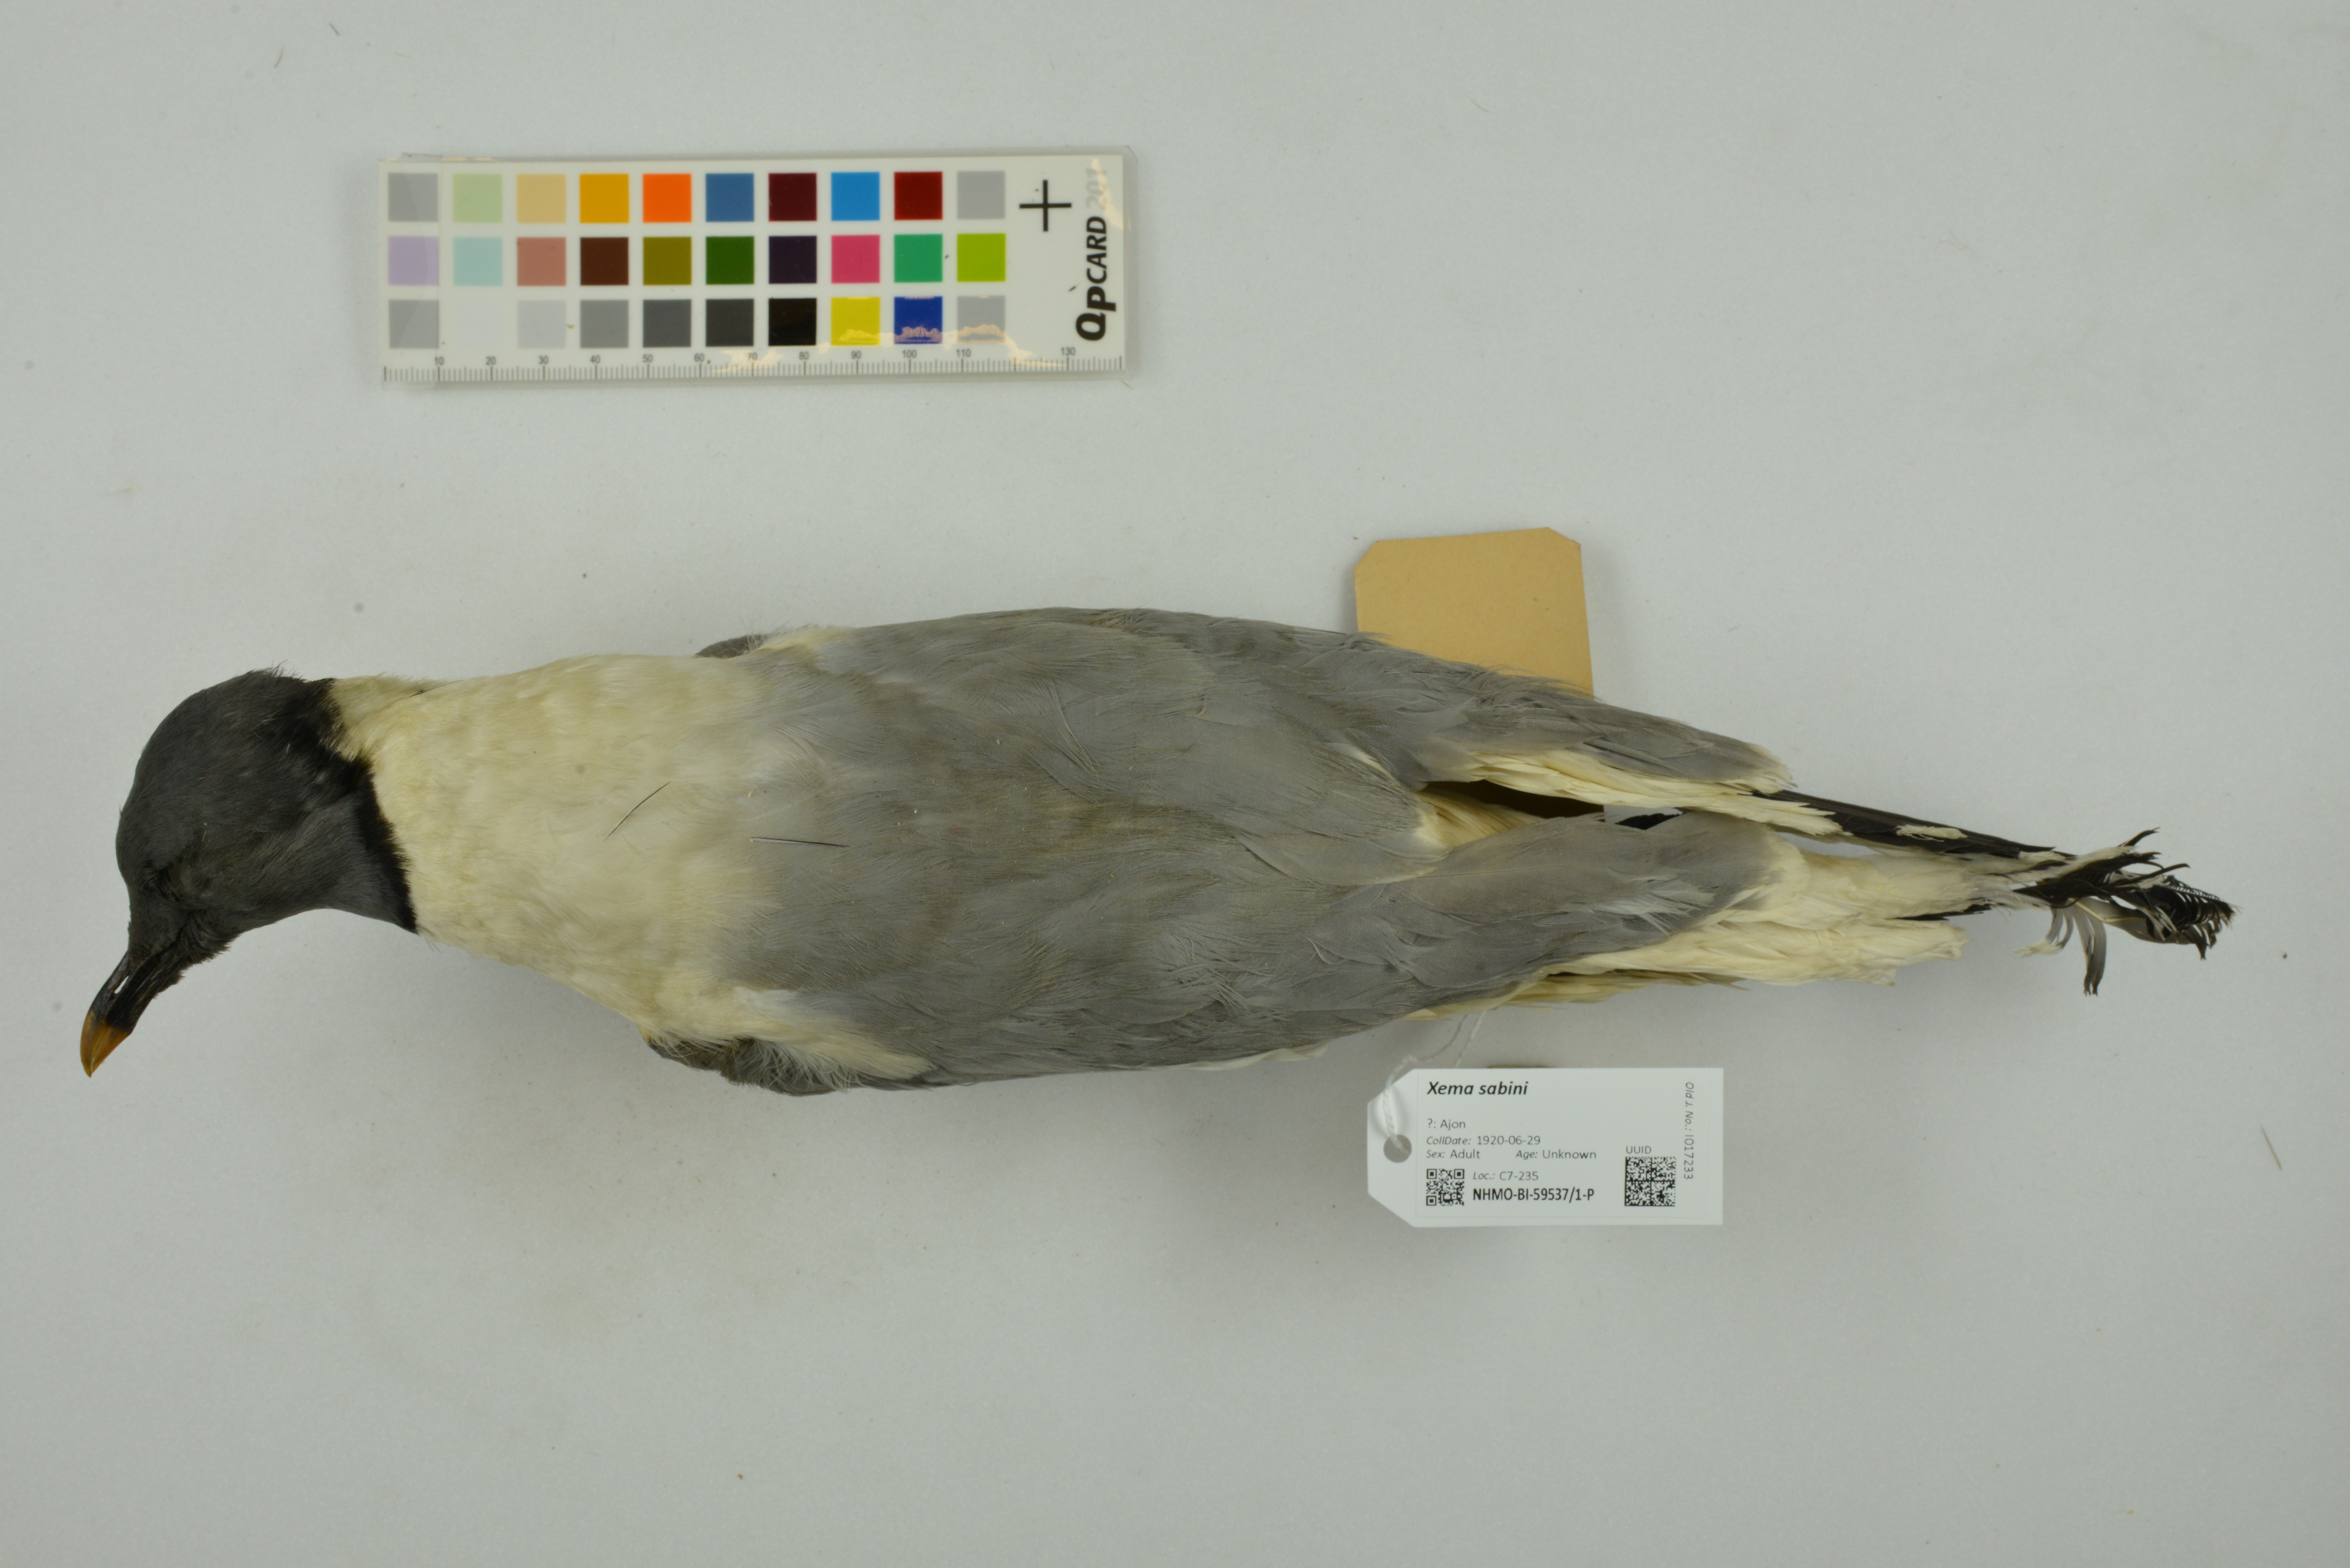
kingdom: Animalia
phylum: Chordata
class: Aves
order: Charadriiformes
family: Laridae
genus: Xema
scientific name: Xema sabini
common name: Sabine's gull
